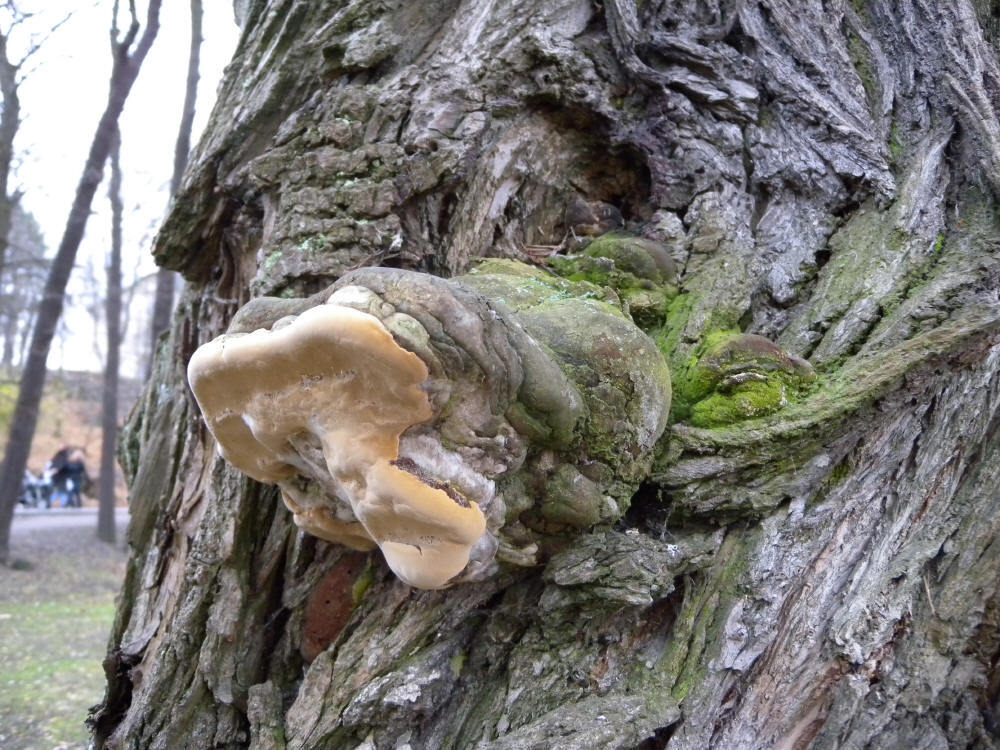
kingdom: Fungi
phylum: Basidiomycota
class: Agaricomycetes
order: Hymenochaetales
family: Hymenochaetaceae
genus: Phellinus
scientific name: Phellinus igniarius
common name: Willow bracket
